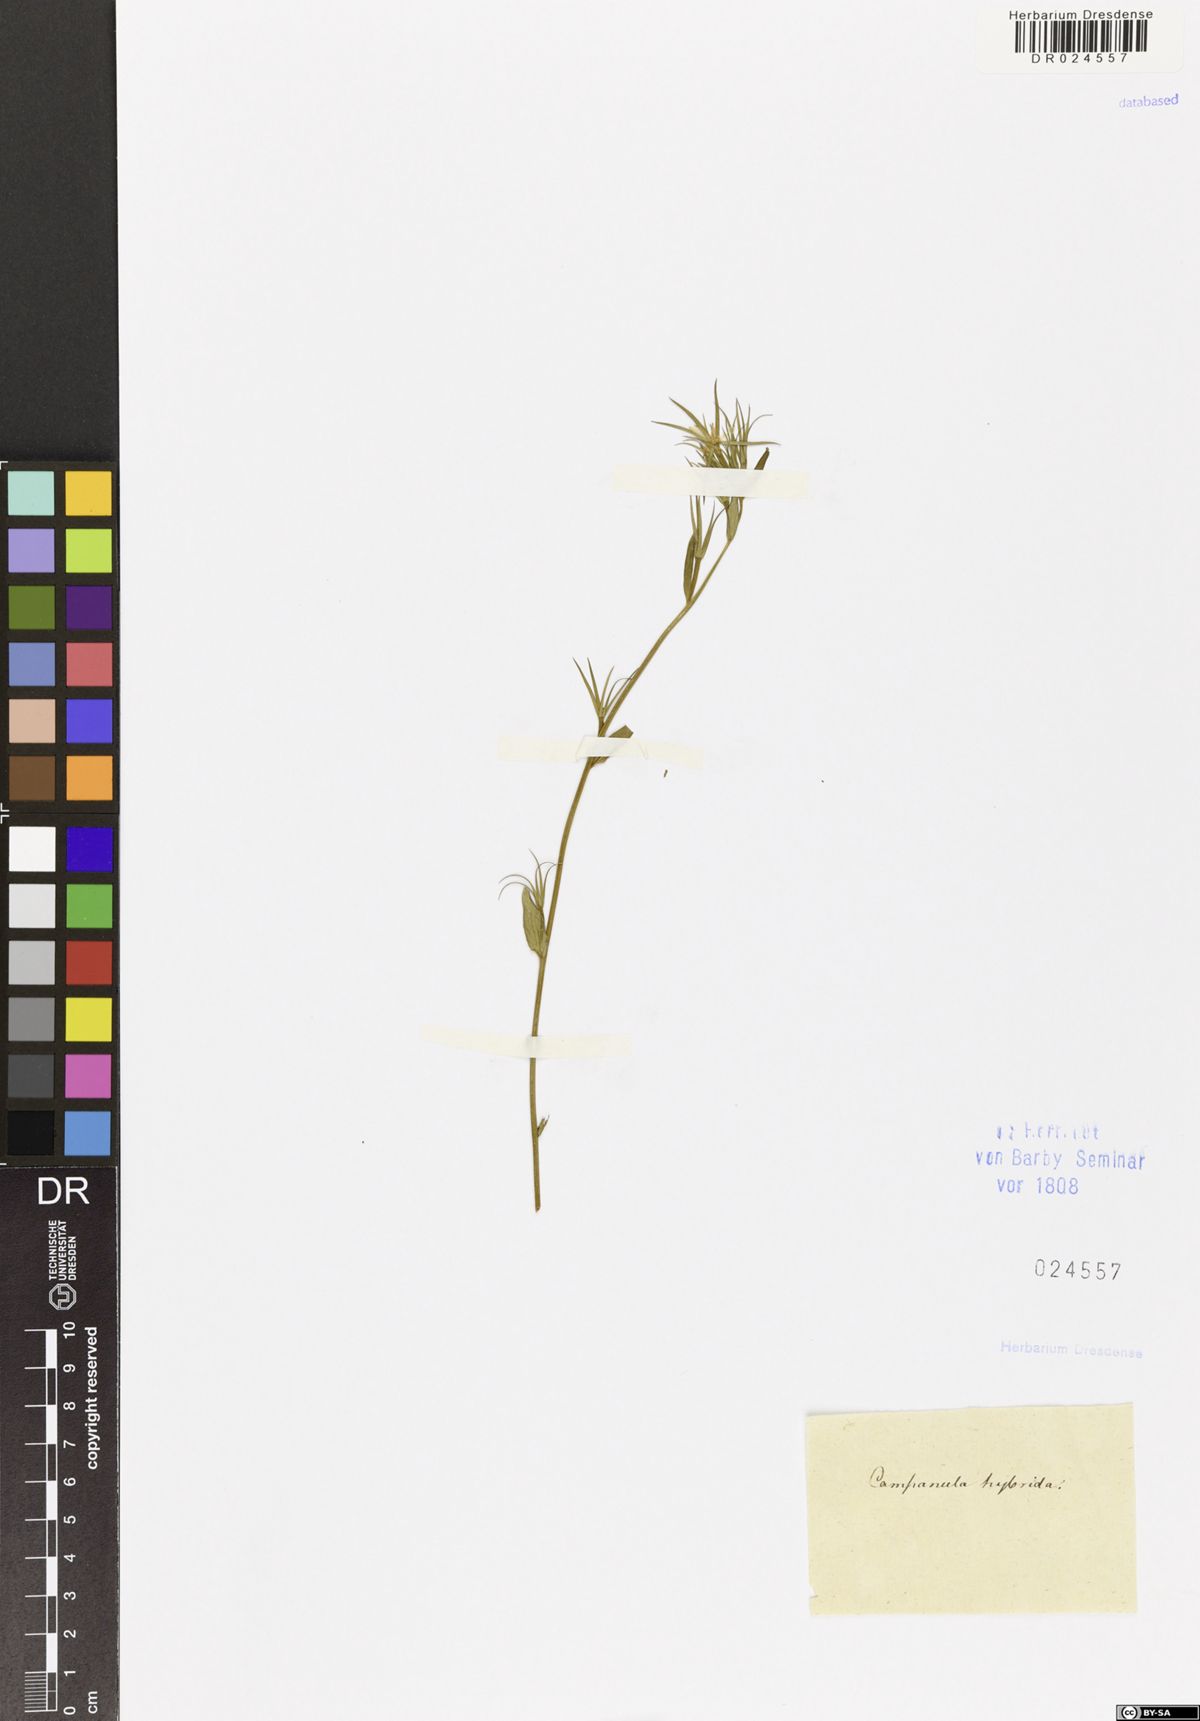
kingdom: Plantae
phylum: Tracheophyta
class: Magnoliopsida
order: Asterales
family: Campanulaceae
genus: Legousia
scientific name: Legousia speculum-veneris
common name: Large venus's-looking-glass
